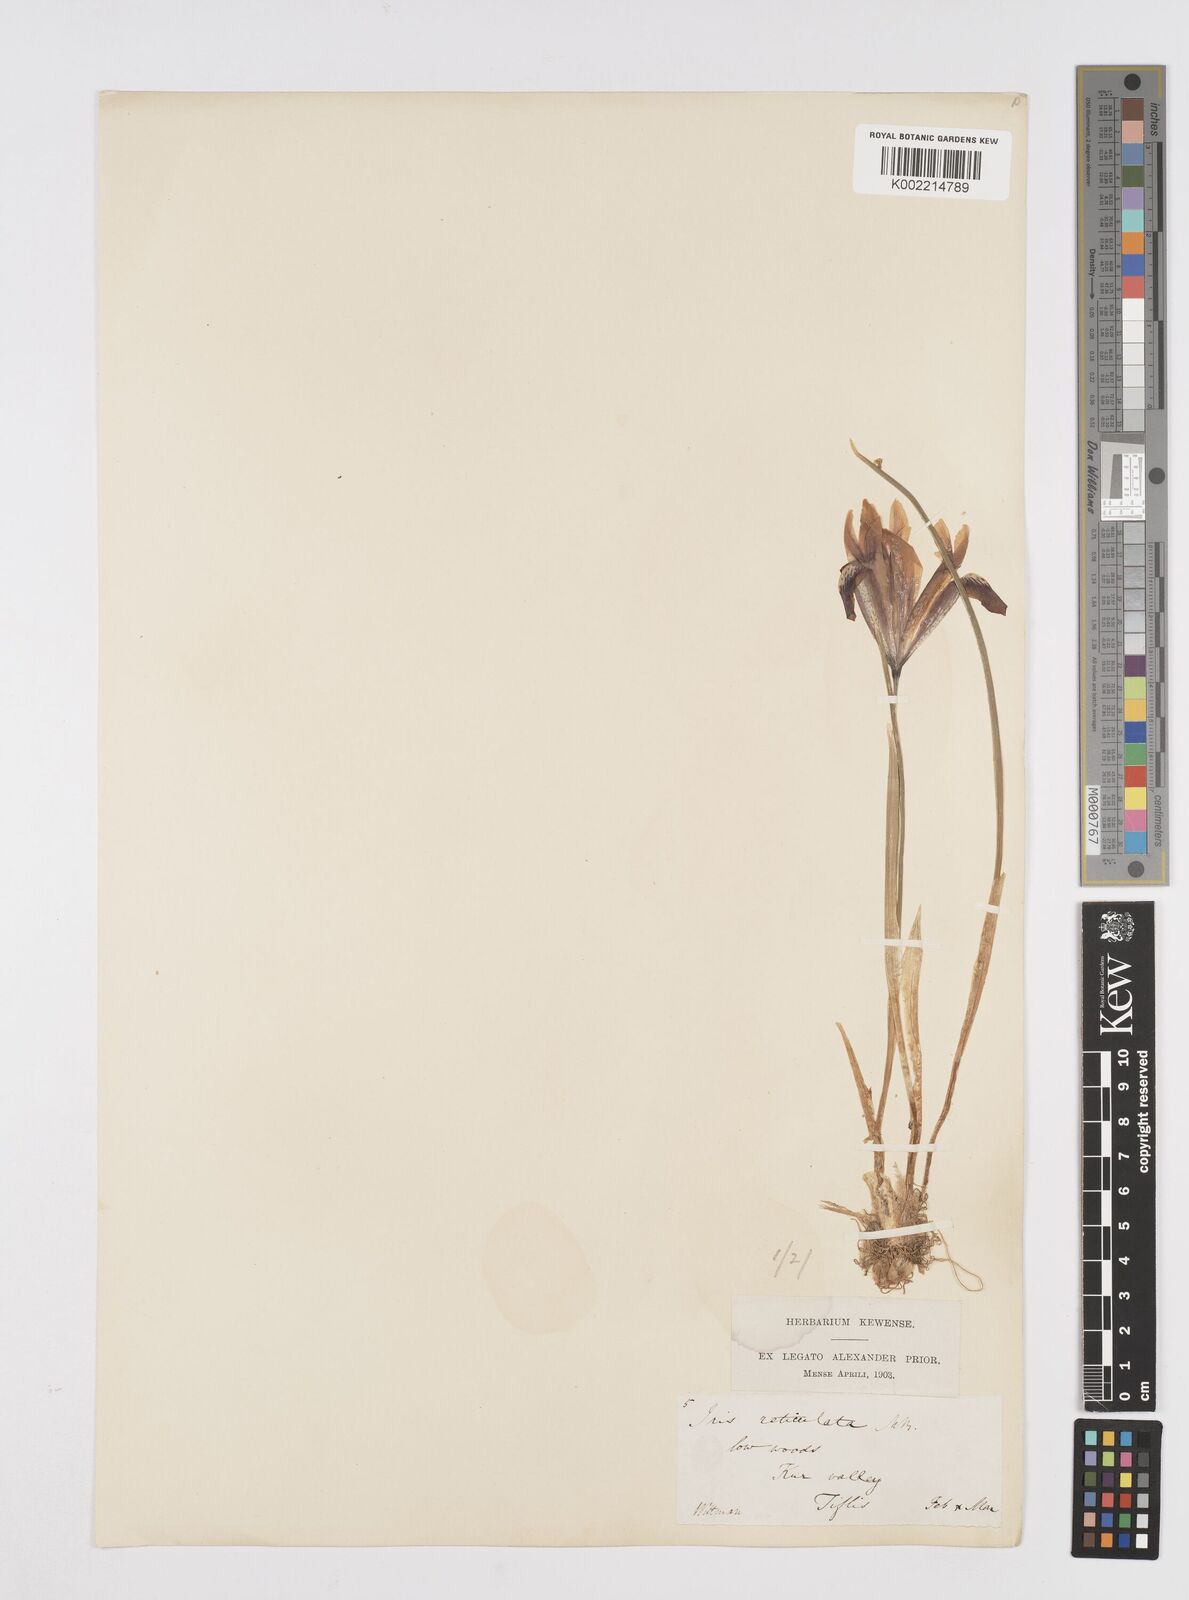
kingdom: Plantae
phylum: Tracheophyta
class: Liliopsida
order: Asparagales
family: Iridaceae
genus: Iris
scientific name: Iris reticulata
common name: Netted iris
